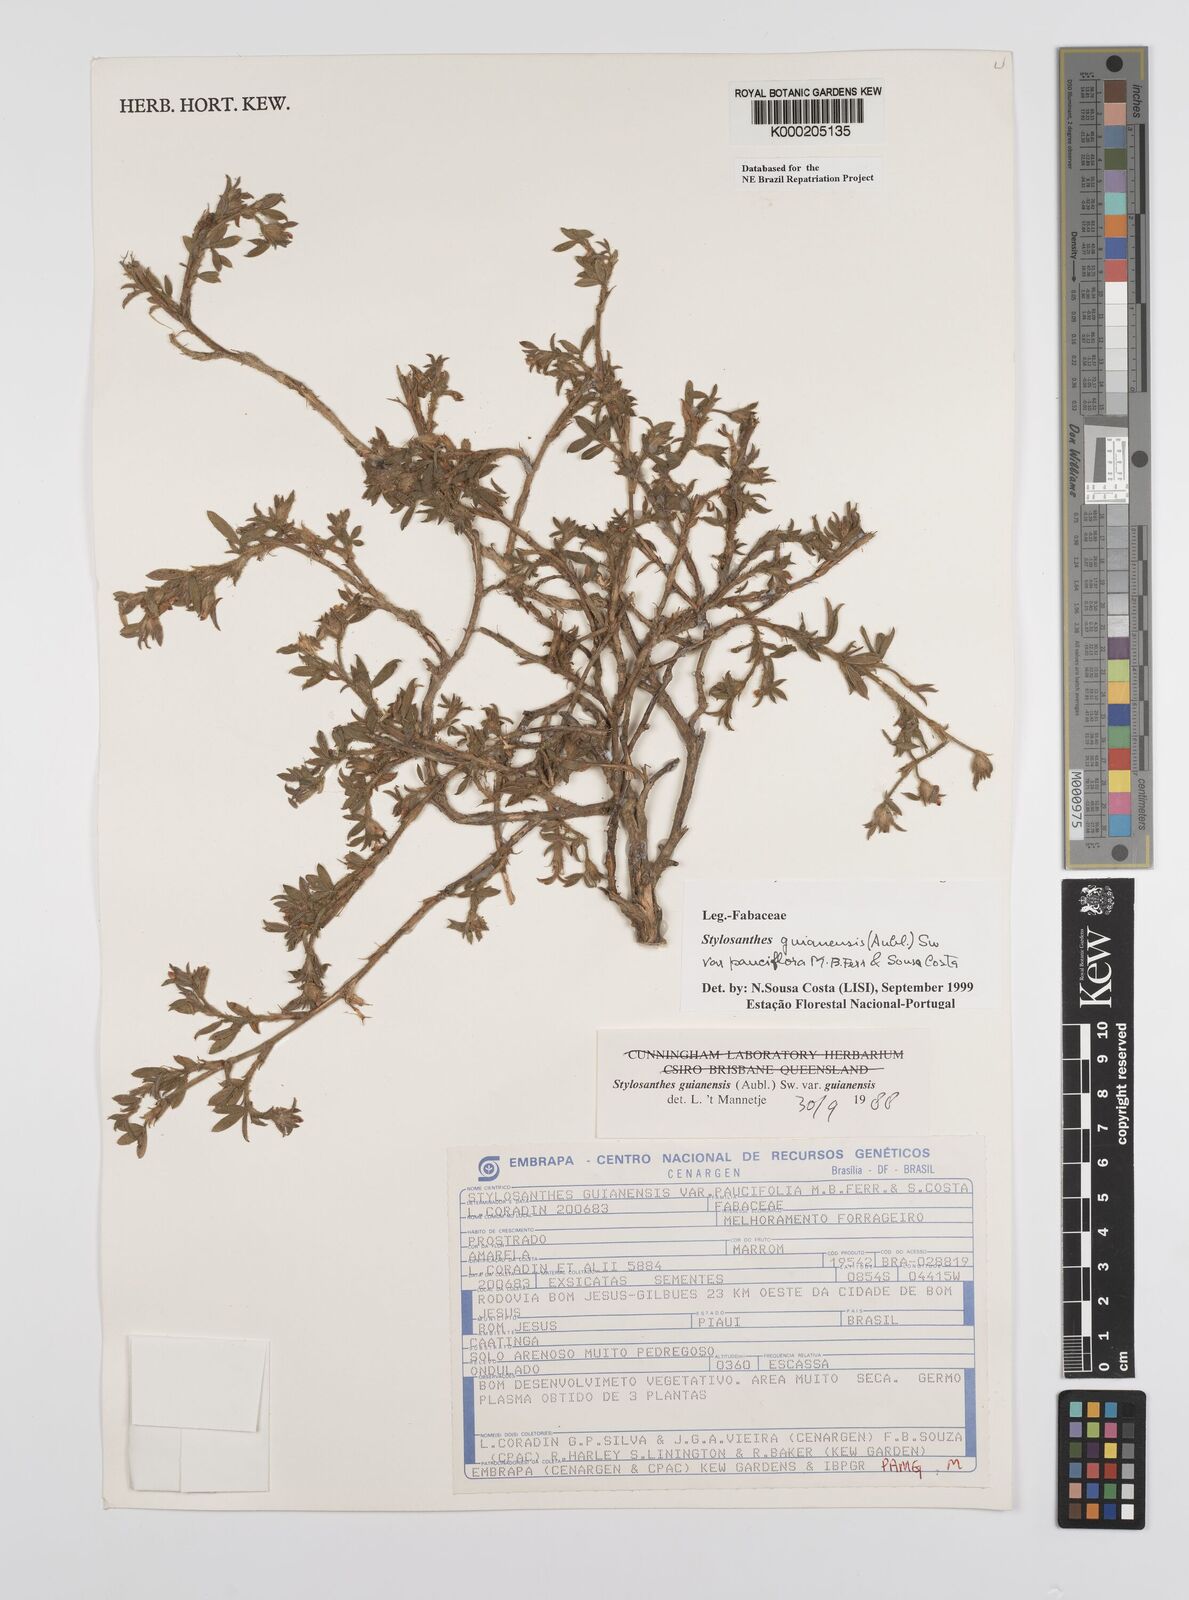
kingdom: Plantae
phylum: Tracheophyta
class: Magnoliopsida
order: Fabales
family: Fabaceae
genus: Stylosanthes
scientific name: Stylosanthes guianensis
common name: Pencil flower
